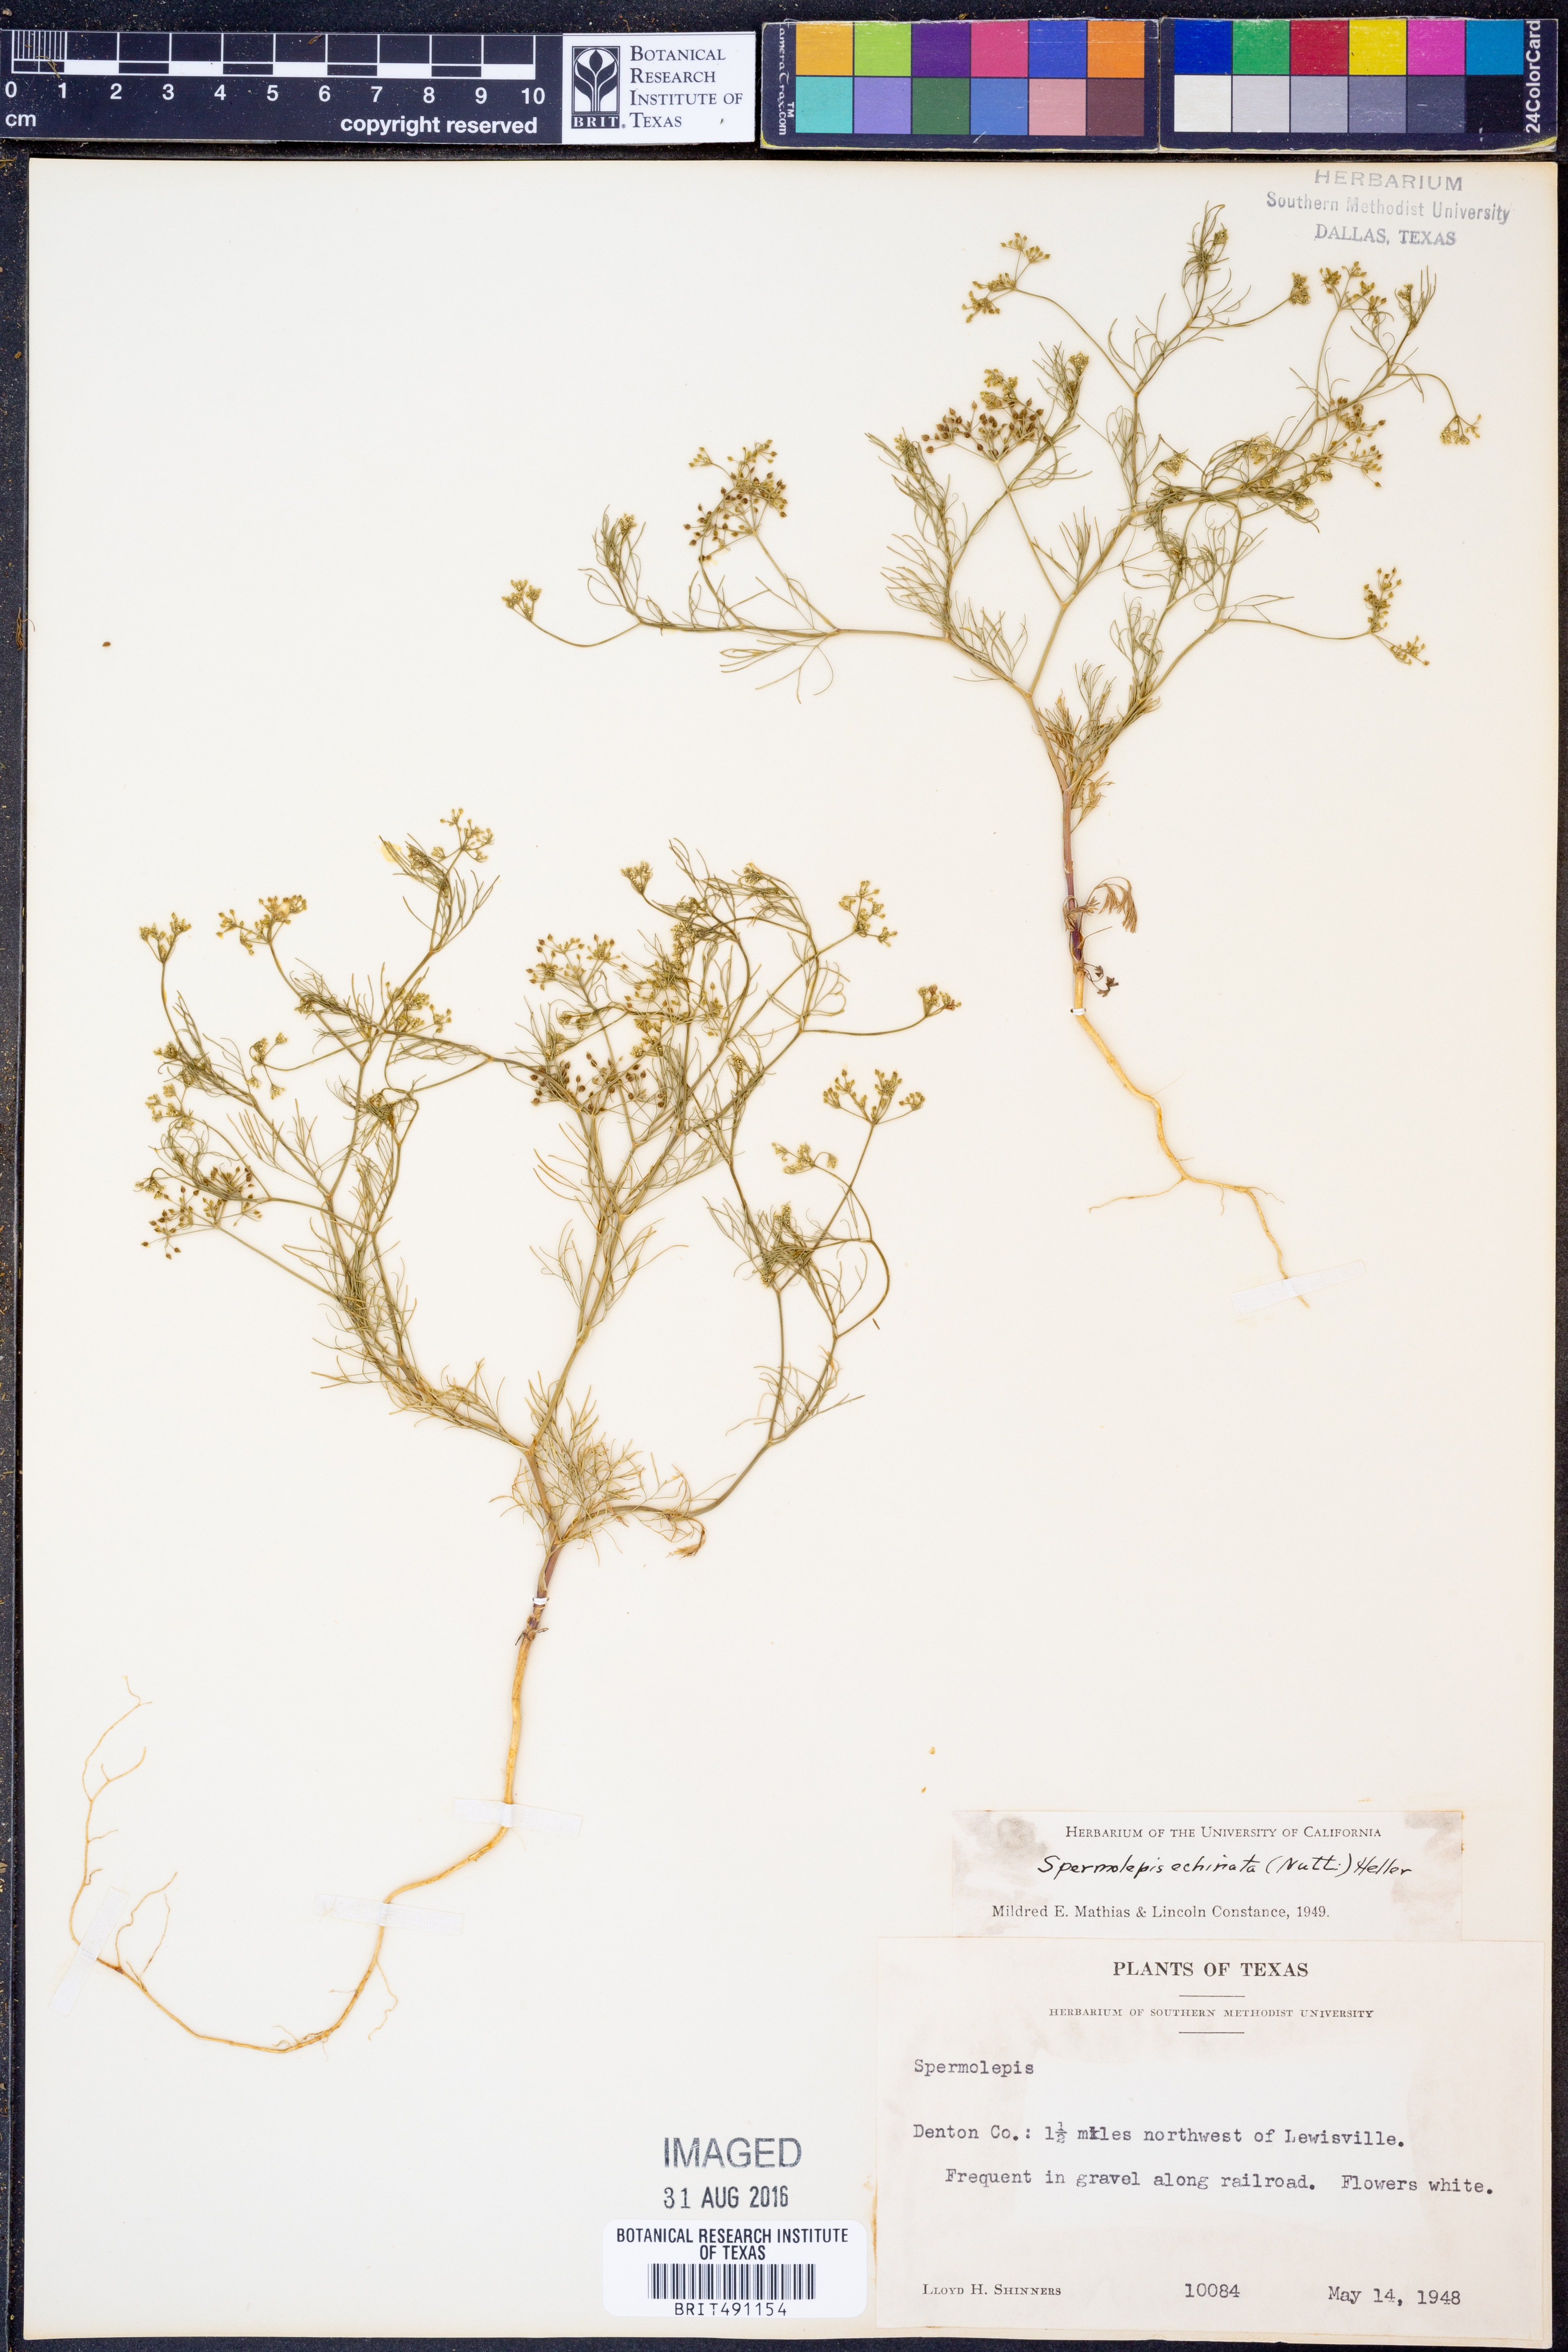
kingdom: Plantae
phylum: Tracheophyta
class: Magnoliopsida
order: Apiales
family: Apiaceae
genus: Spermolepis
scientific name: Spermolepis echinata
